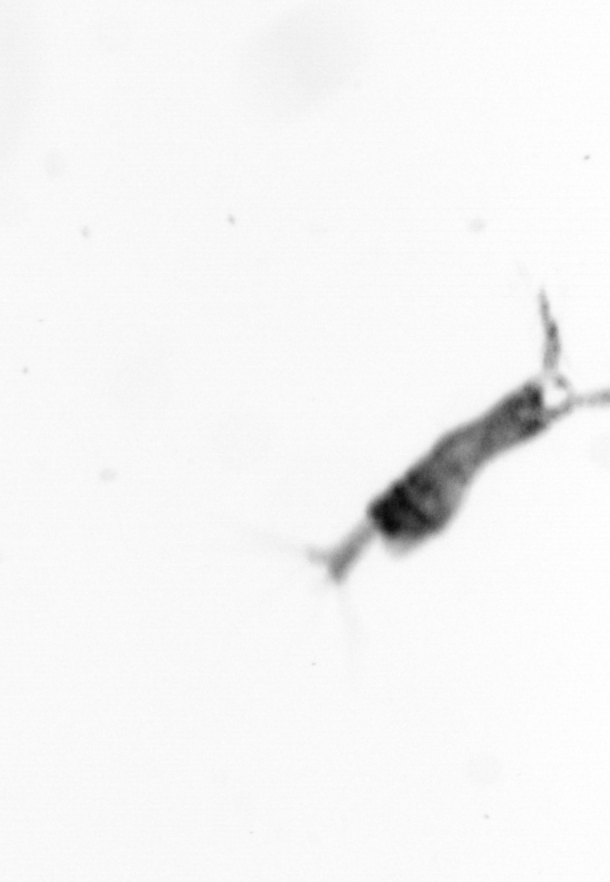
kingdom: Animalia
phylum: Arthropoda
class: Copepoda
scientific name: Copepoda
